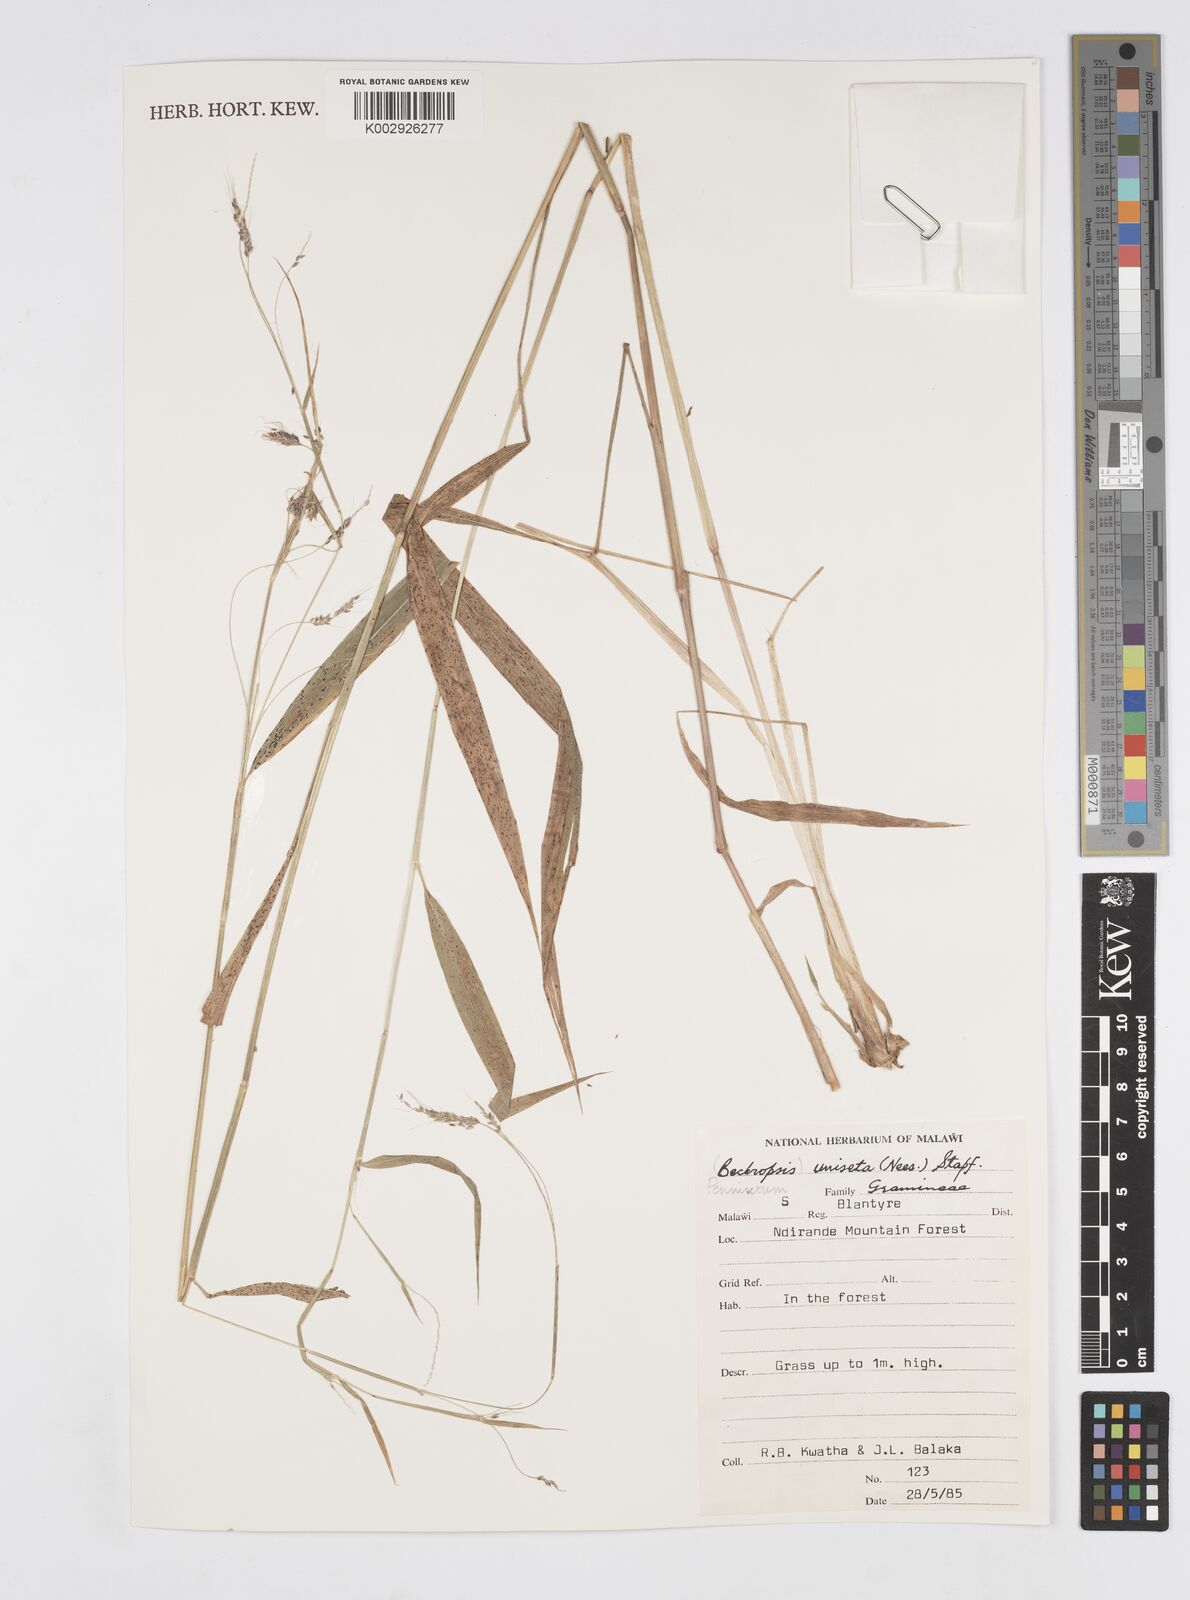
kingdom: Plantae
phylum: Tracheophyta
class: Liliopsida
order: Poales
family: Poaceae
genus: Cenchrus
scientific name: Cenchrus unisetus
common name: Natal grass
